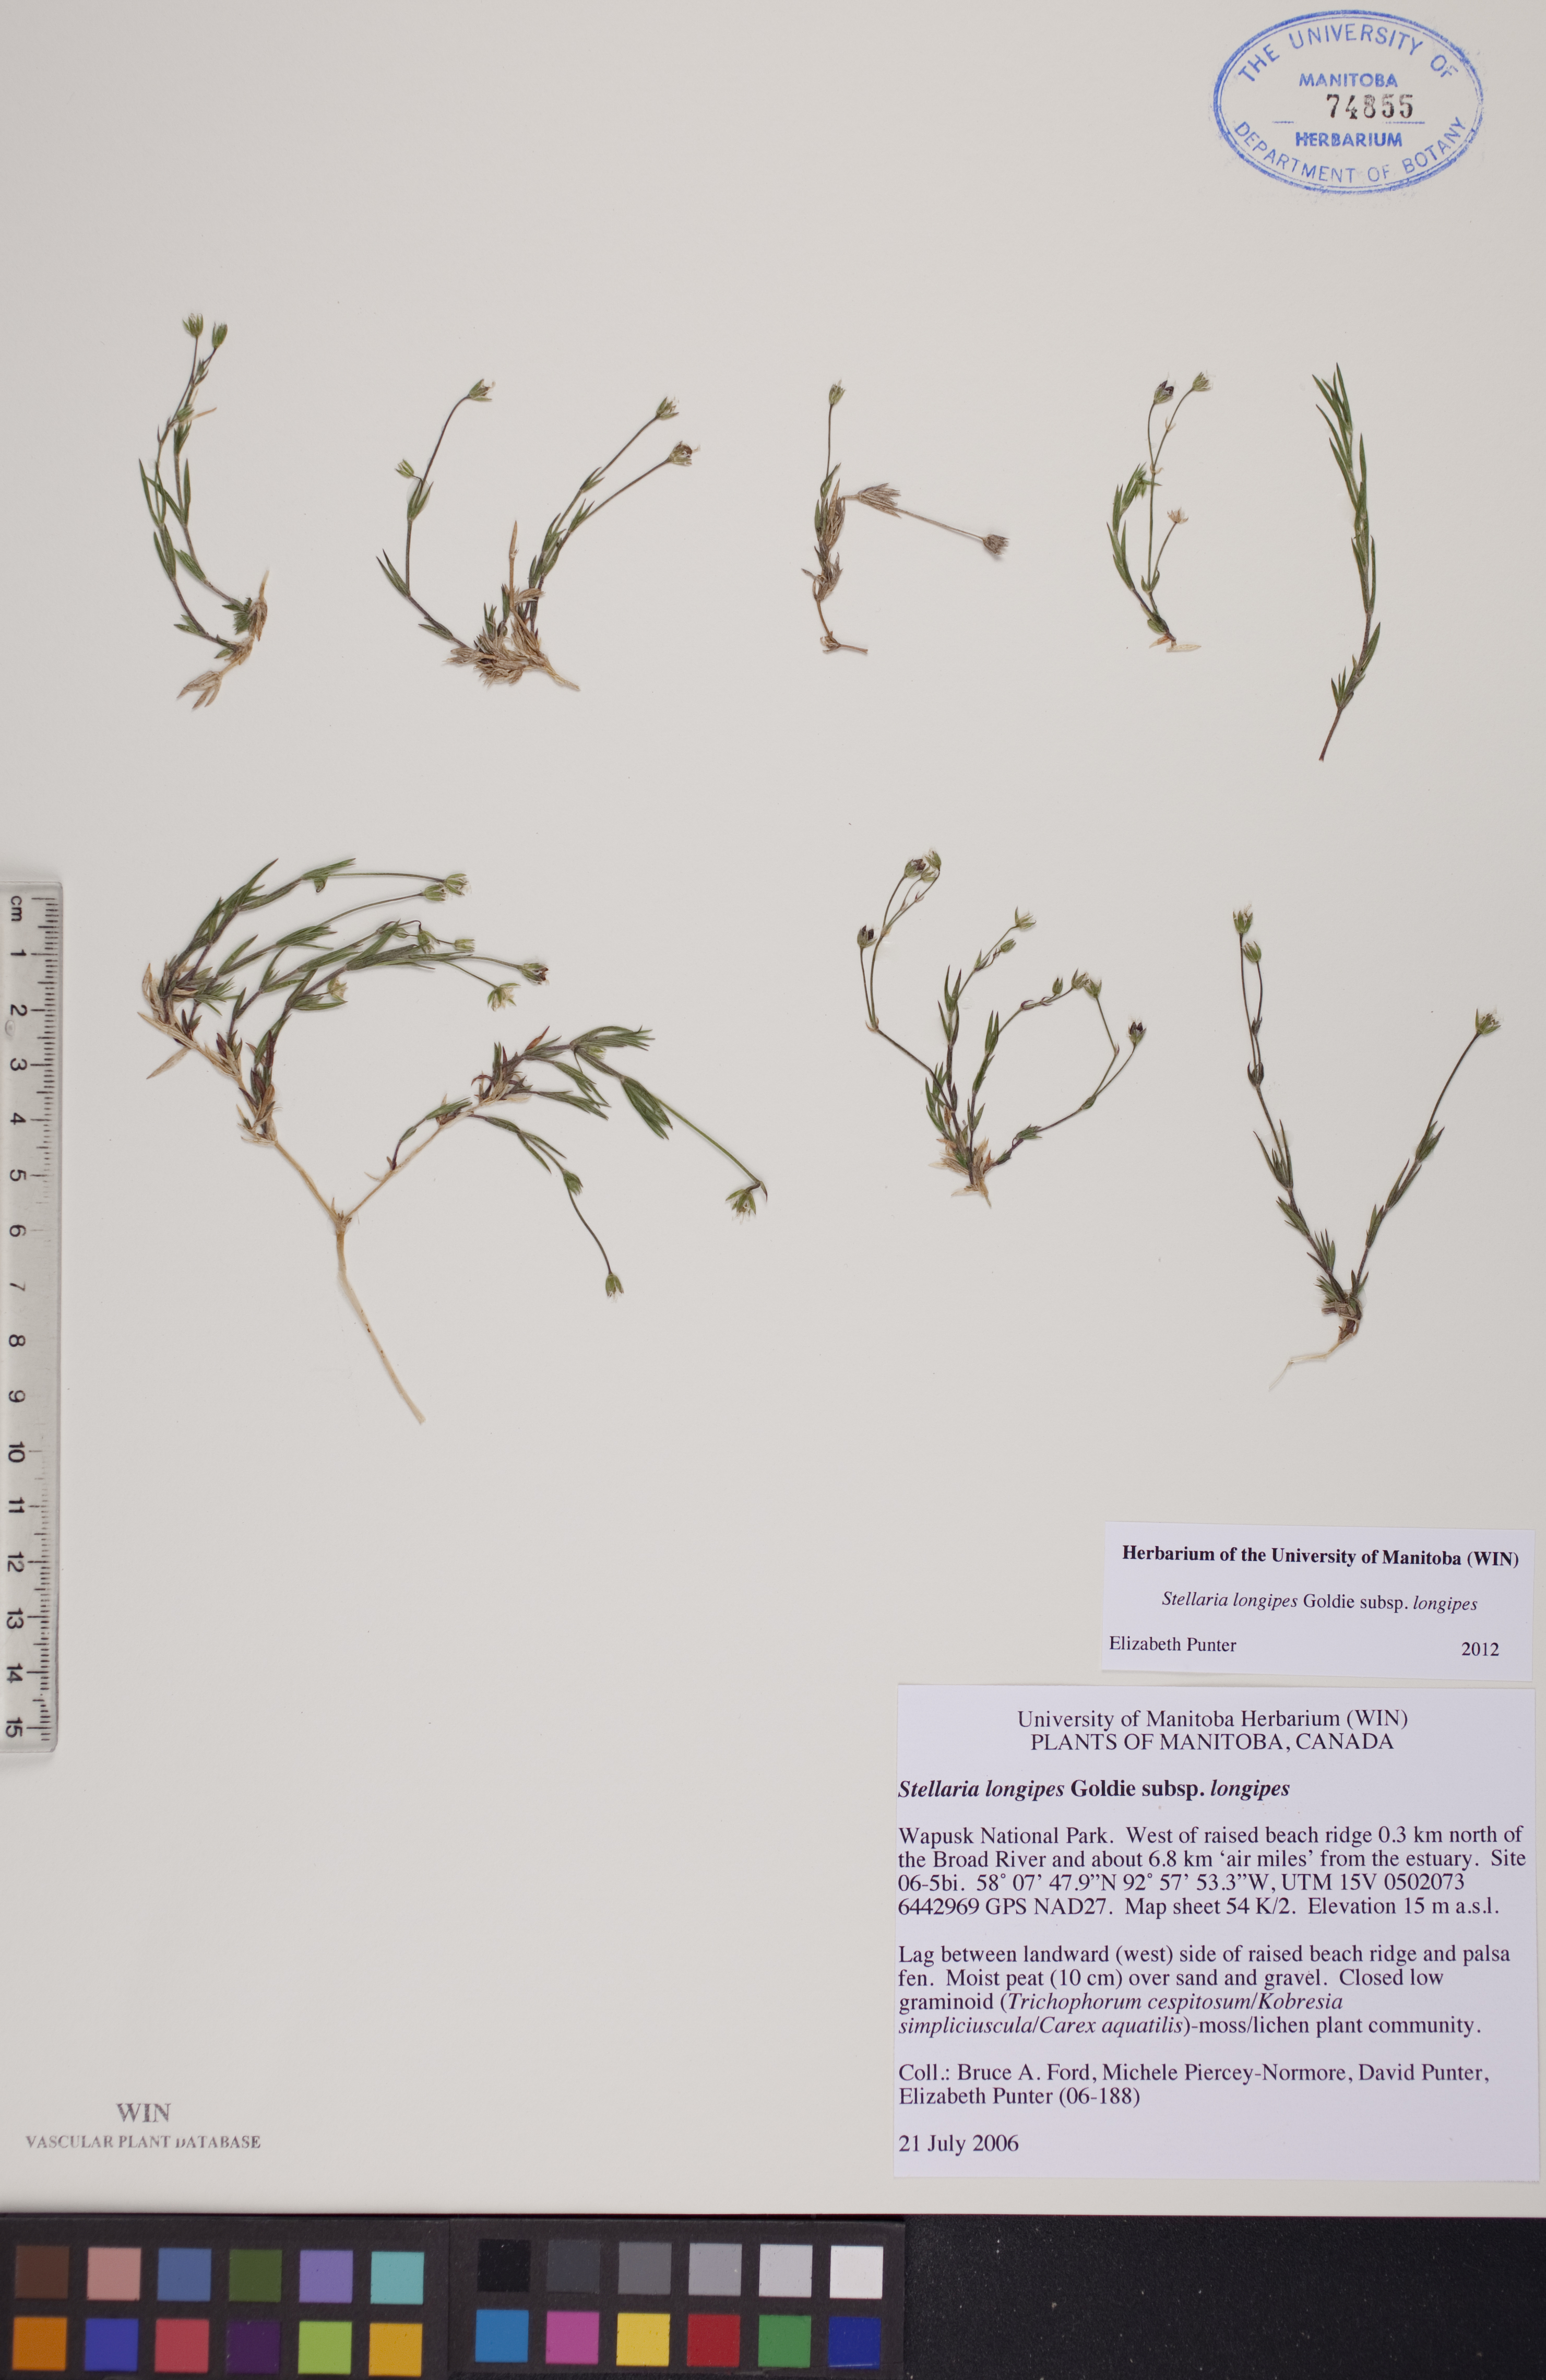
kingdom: Plantae
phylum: Tracheophyta
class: Magnoliopsida
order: Caryophyllales
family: Caryophyllaceae
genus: Stellaria
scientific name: Stellaria longipes
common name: Goldie's starwort
